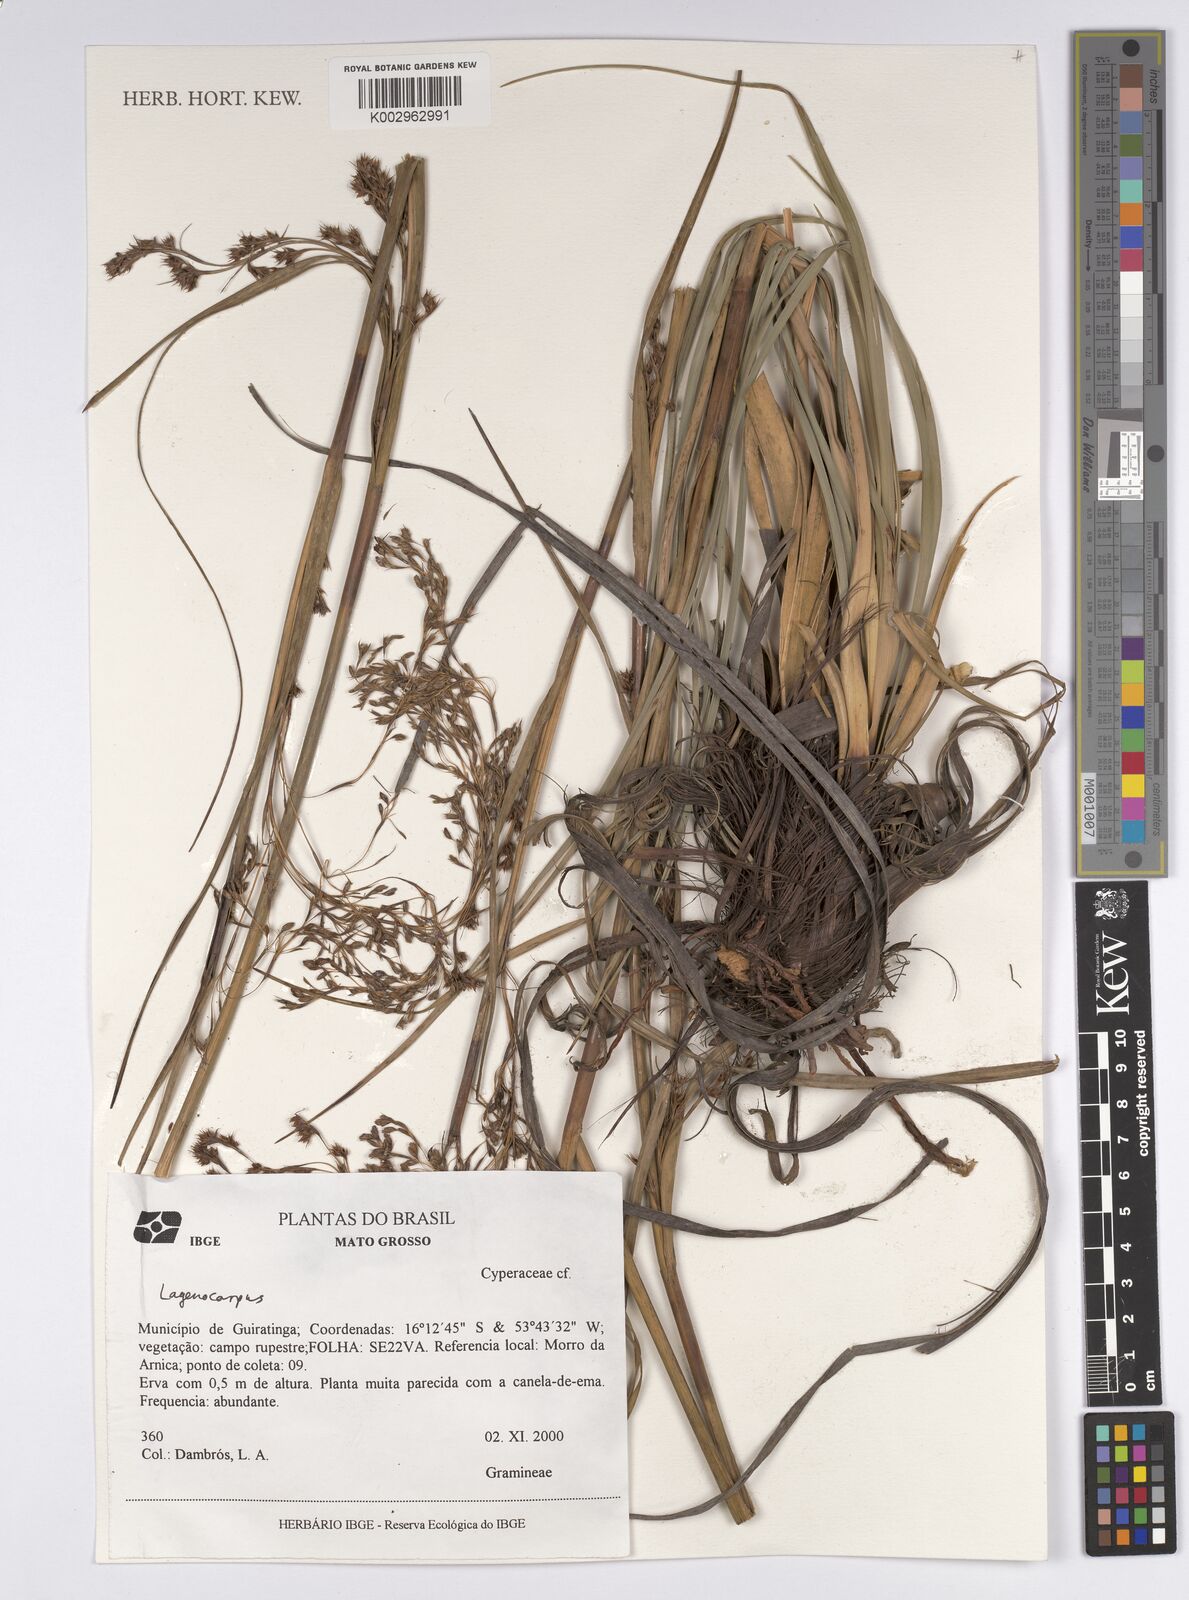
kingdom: Plantae
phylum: Tracheophyta
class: Liliopsida
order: Poales
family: Cyperaceae
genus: Lagenocarpus
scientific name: Lagenocarpus
